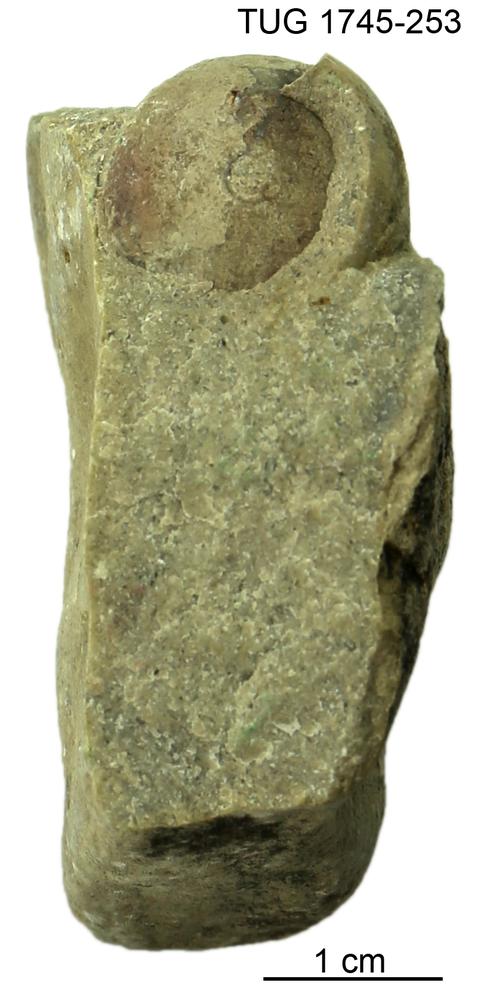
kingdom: Animalia
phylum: Mollusca
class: Cephalopoda
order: Nautilida
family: Nautilidae
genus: Dawsonoceras
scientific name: Dawsonoceras
